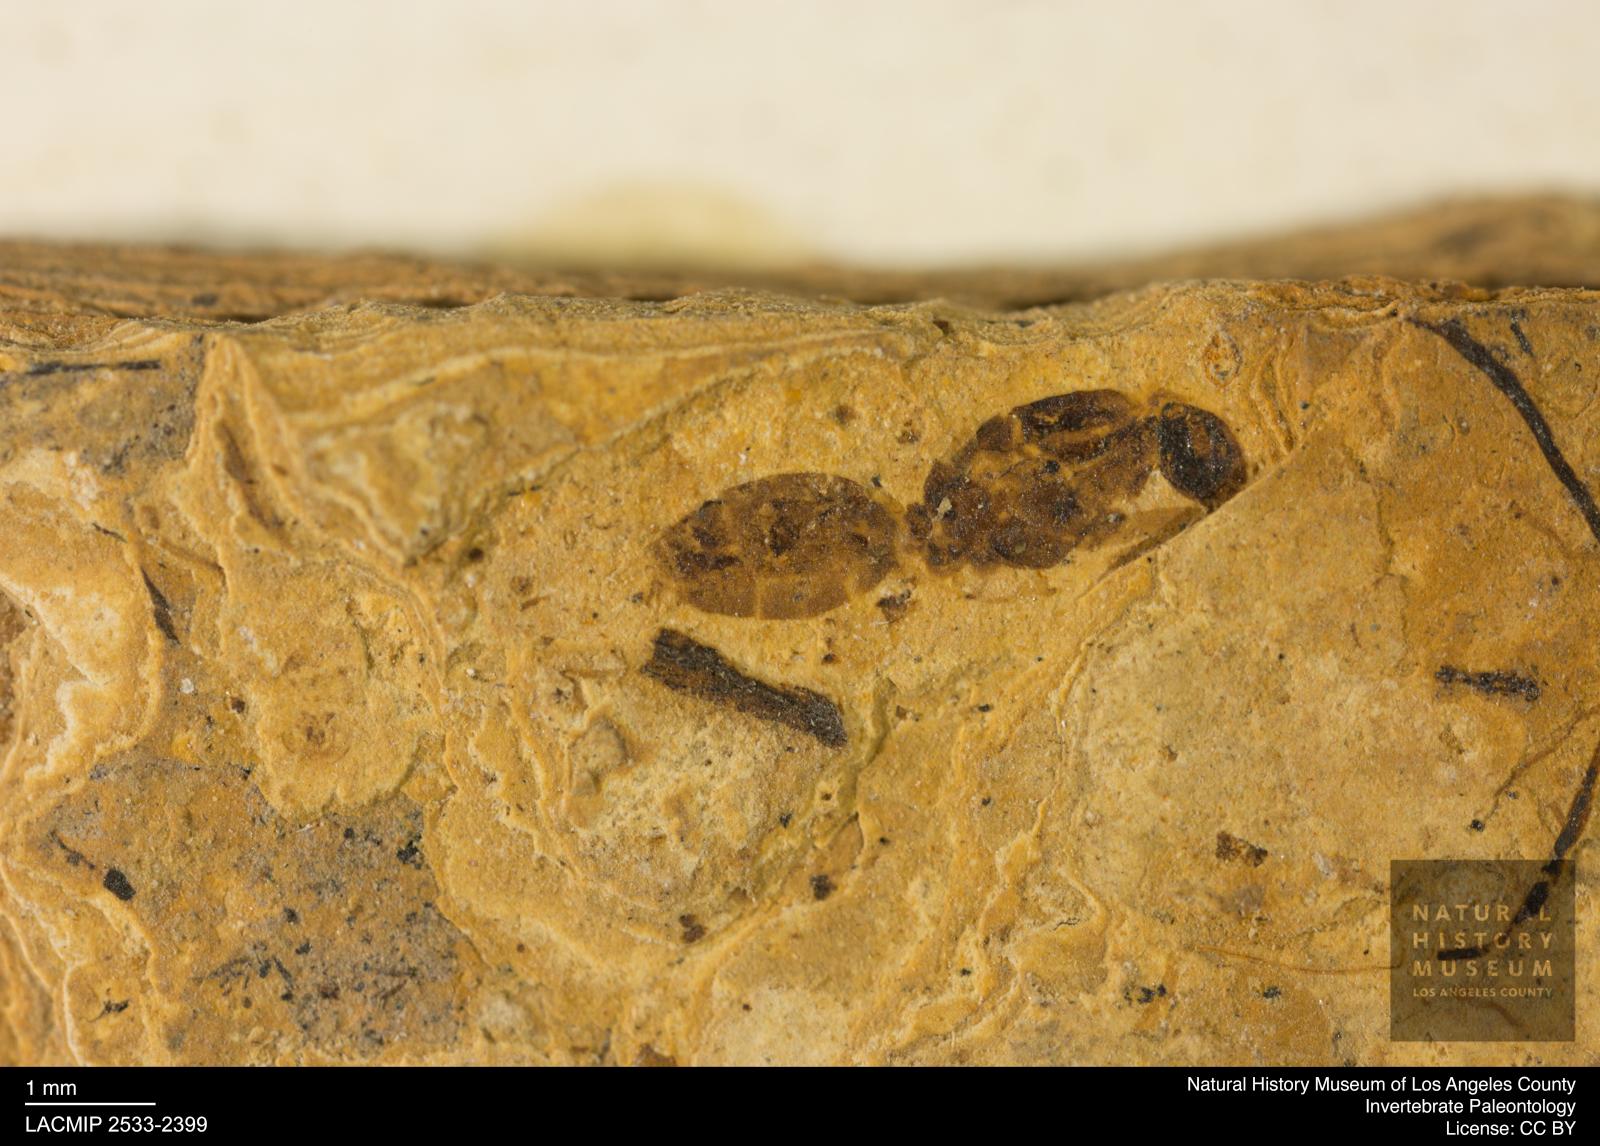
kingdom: Animalia
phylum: Arthropoda
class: Insecta
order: Hymenoptera
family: Formicidae
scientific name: Formicidae
